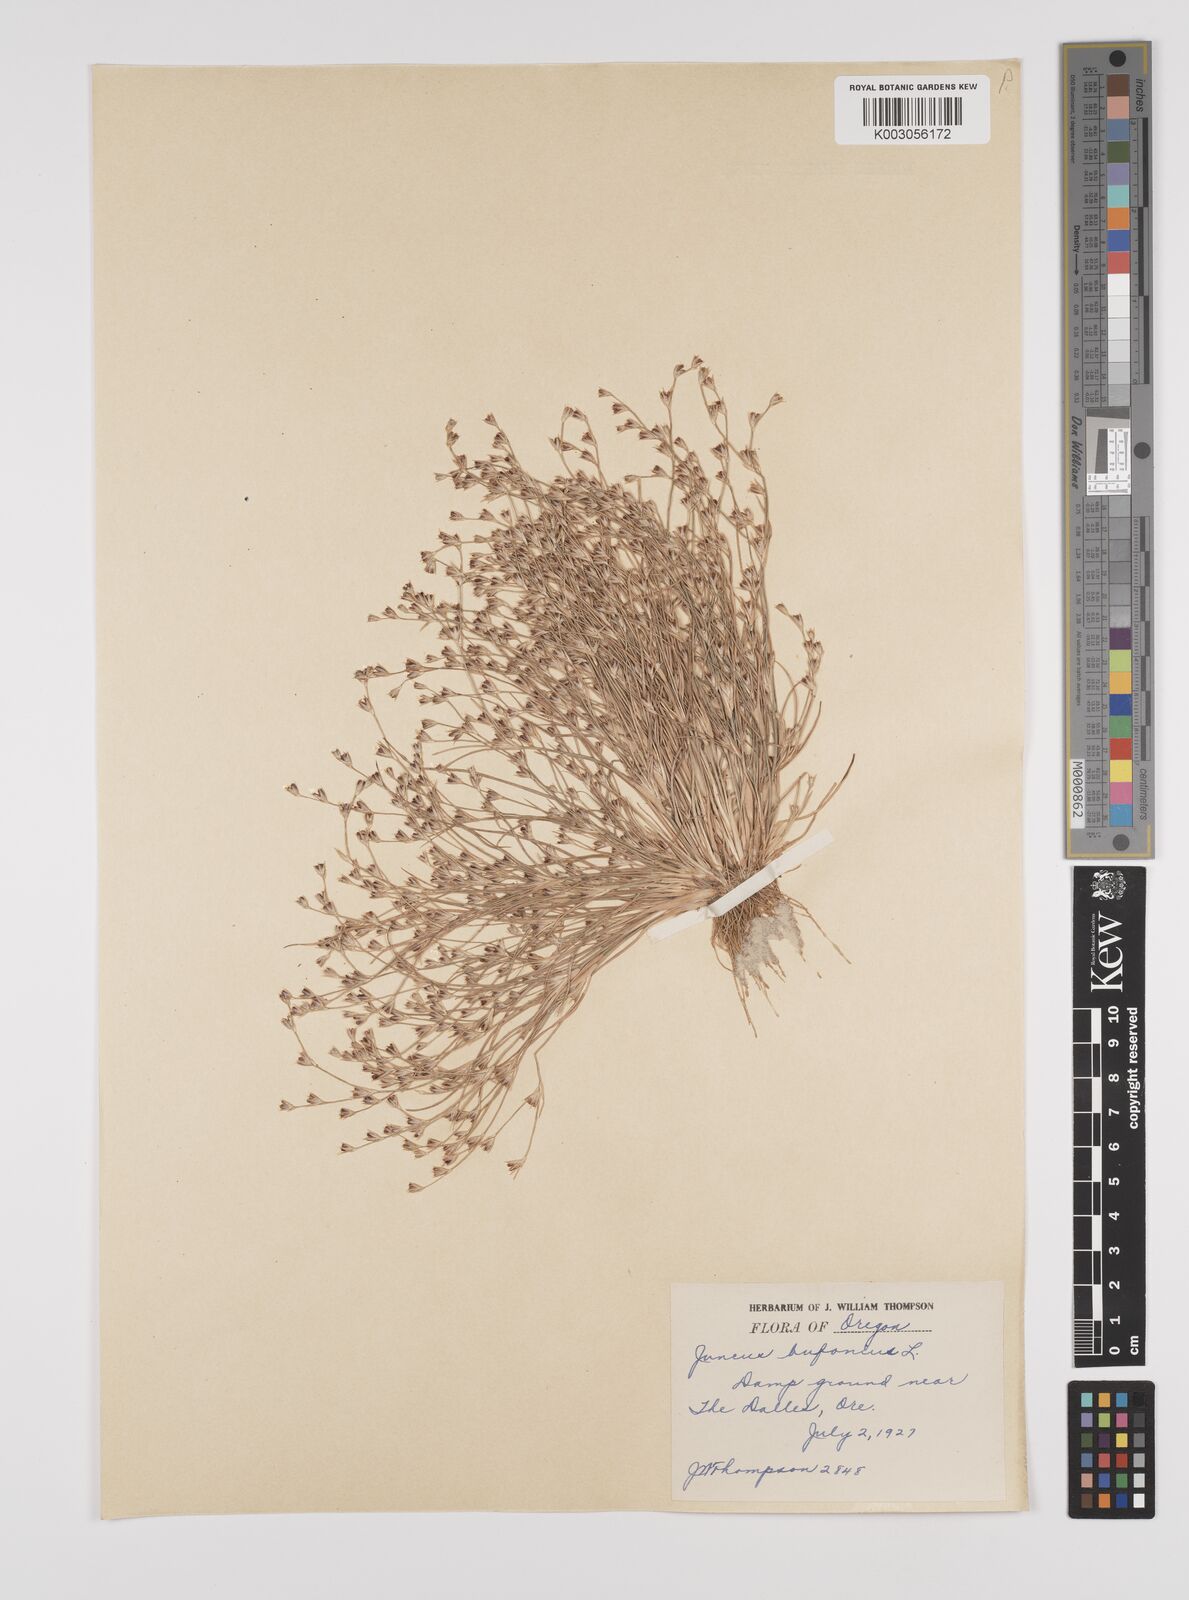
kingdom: Plantae
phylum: Tracheophyta
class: Liliopsida
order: Poales
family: Juncaceae
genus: Juncus
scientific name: Juncus bufonius
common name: Toad rush
